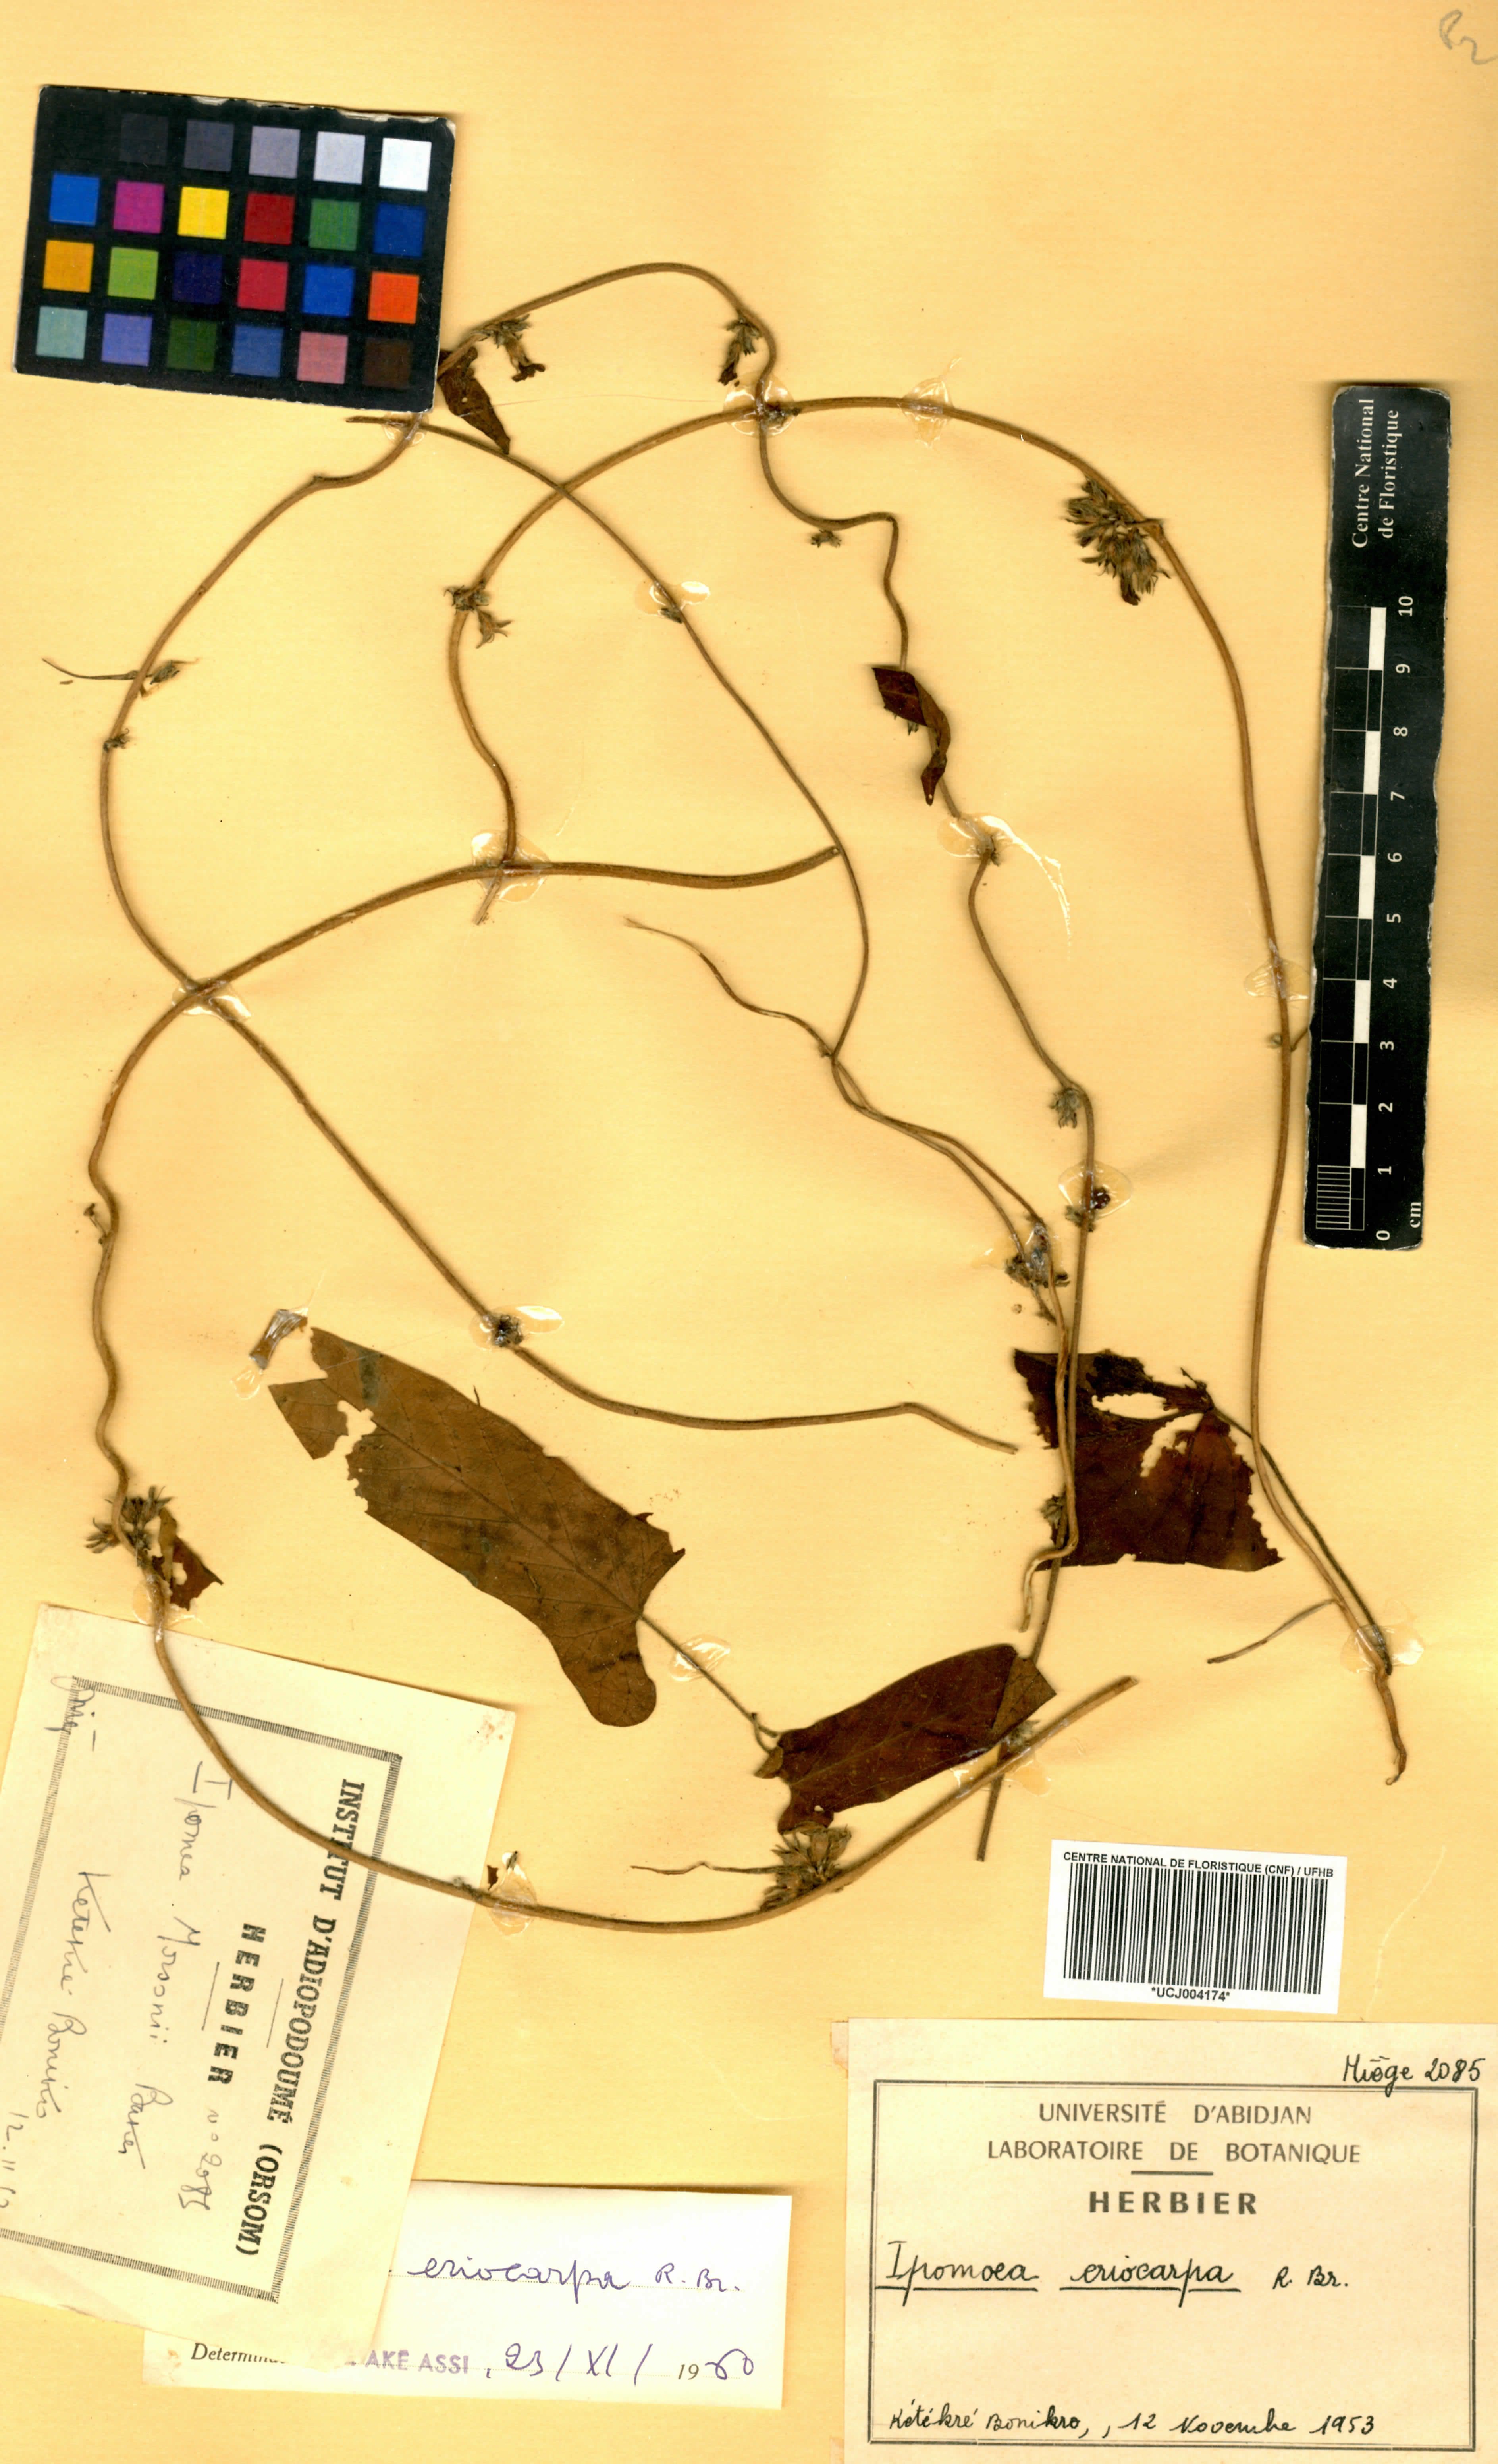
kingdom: Plantae
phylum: Tracheophyta
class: Magnoliopsida
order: Solanales
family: Convolvulaceae
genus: Ipomoea
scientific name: Ipomoea eriocarpa
